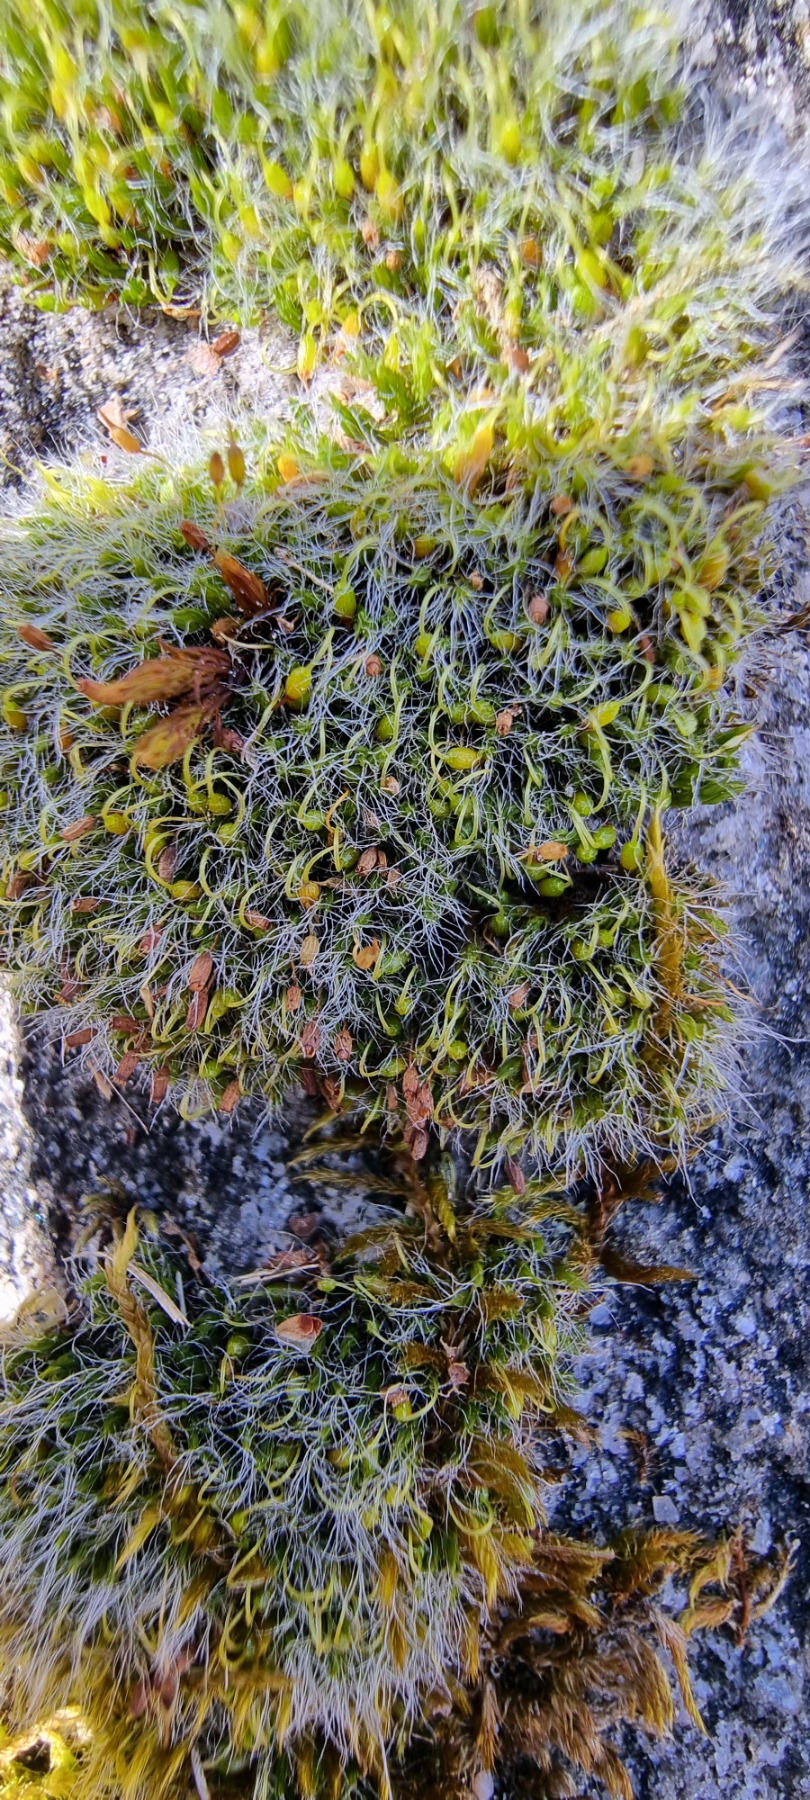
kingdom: Plantae
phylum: Bryophyta
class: Bryopsida
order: Grimmiales
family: Grimmiaceae
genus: Grimmia
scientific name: Grimmia pulvinata
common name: Pude-gråmos
